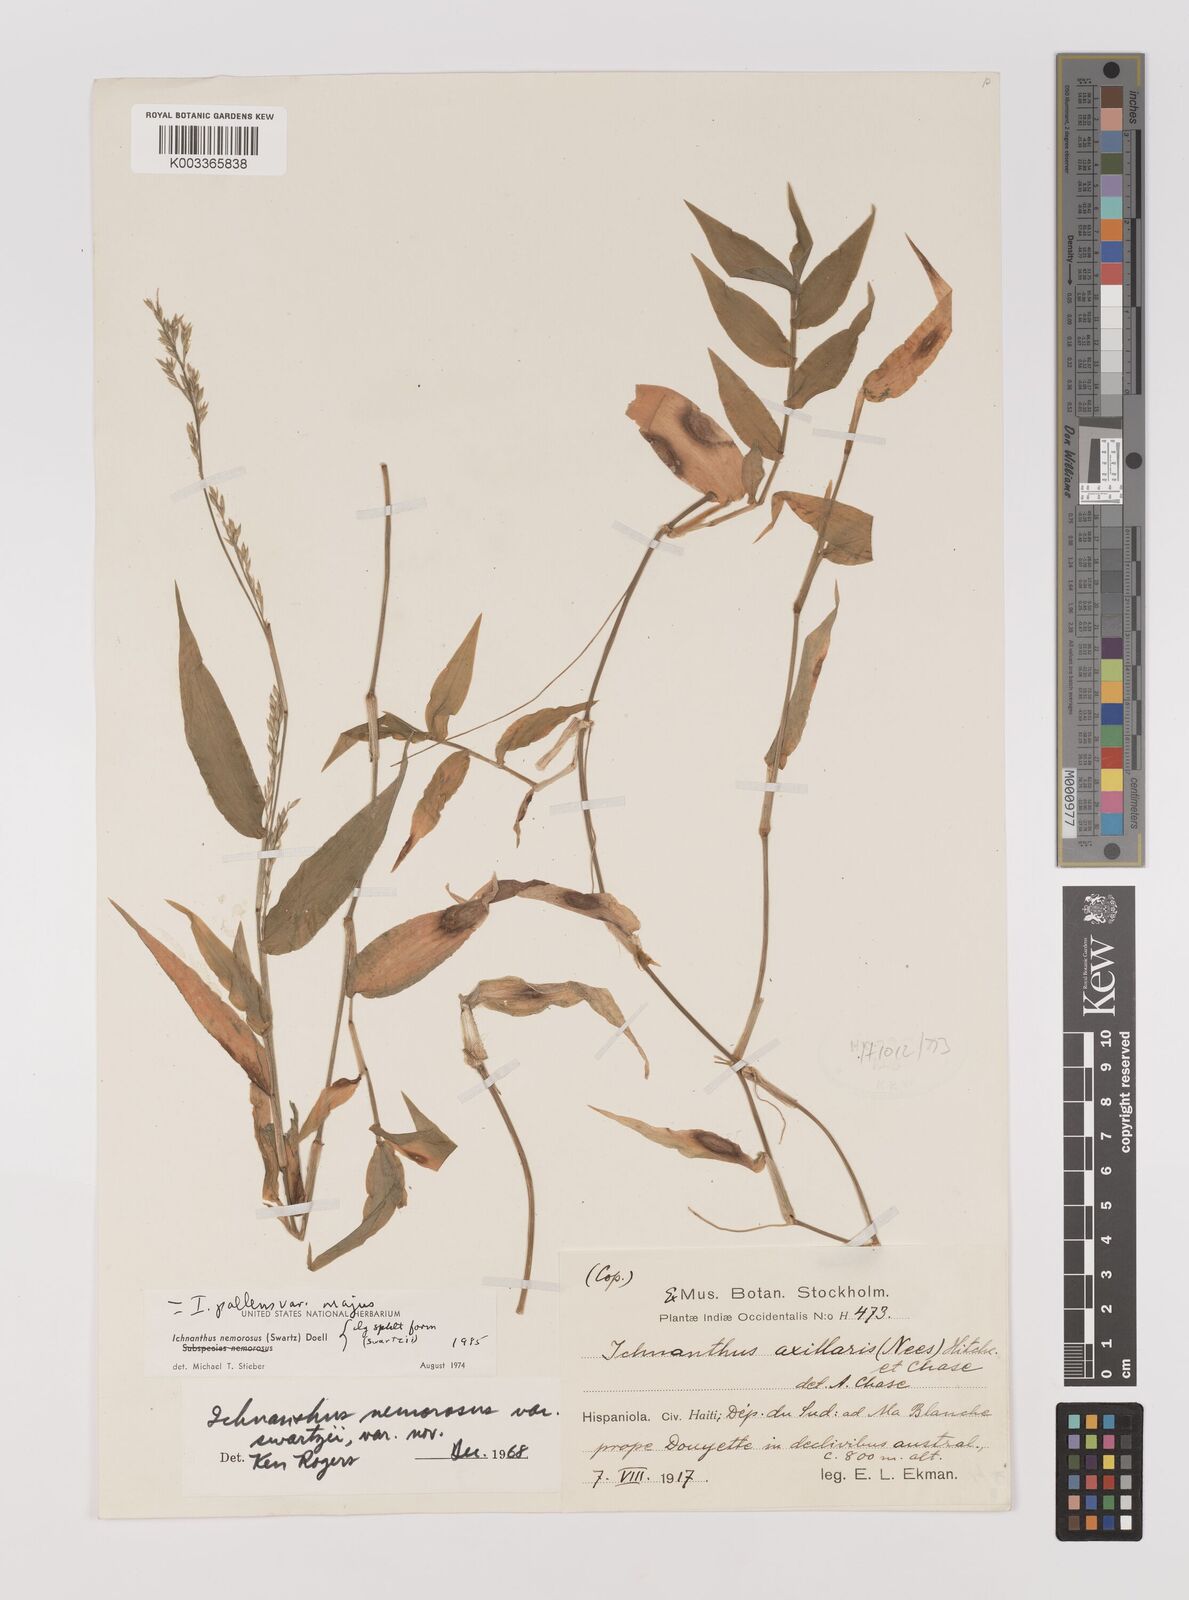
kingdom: Plantae
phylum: Tracheophyta
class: Liliopsida
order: Poales
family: Poaceae
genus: Ichnanthus
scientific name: Ichnanthus pallens
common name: Water grass
